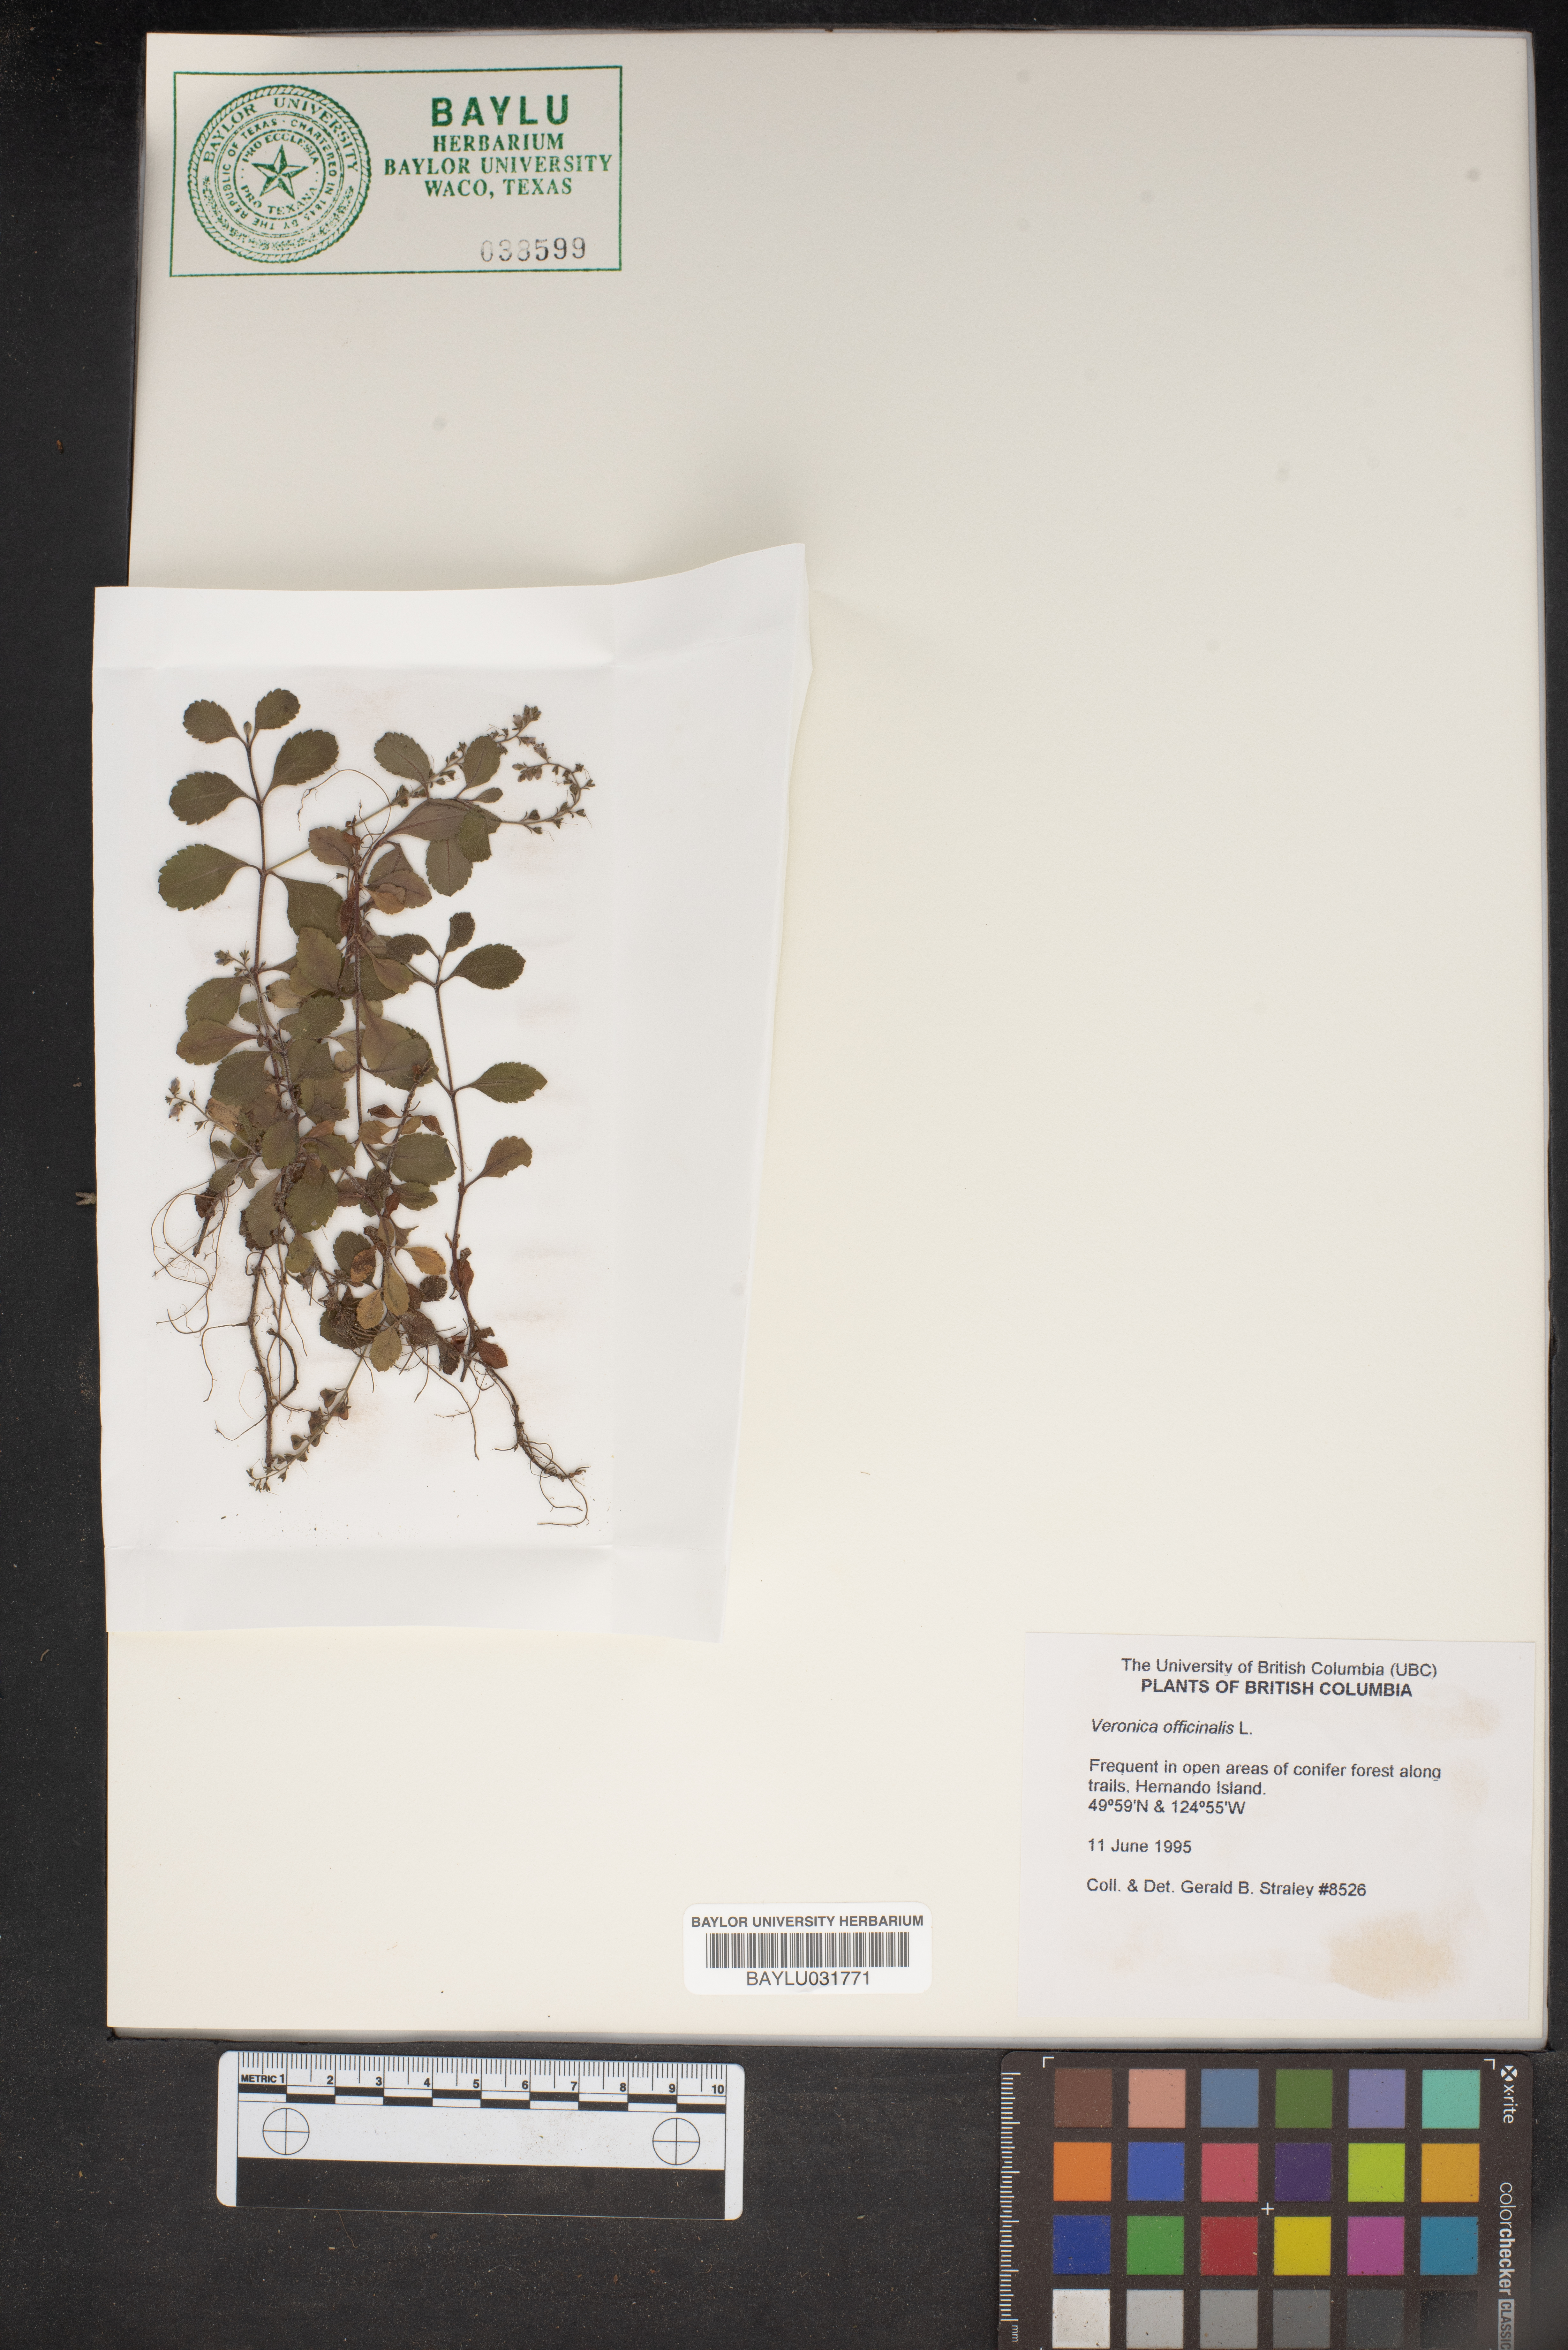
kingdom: Plantae
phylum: Tracheophyta
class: Magnoliopsida
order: Lamiales
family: Plantaginaceae
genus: Veronica
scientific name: Veronica officinalis
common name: Common speedwell
